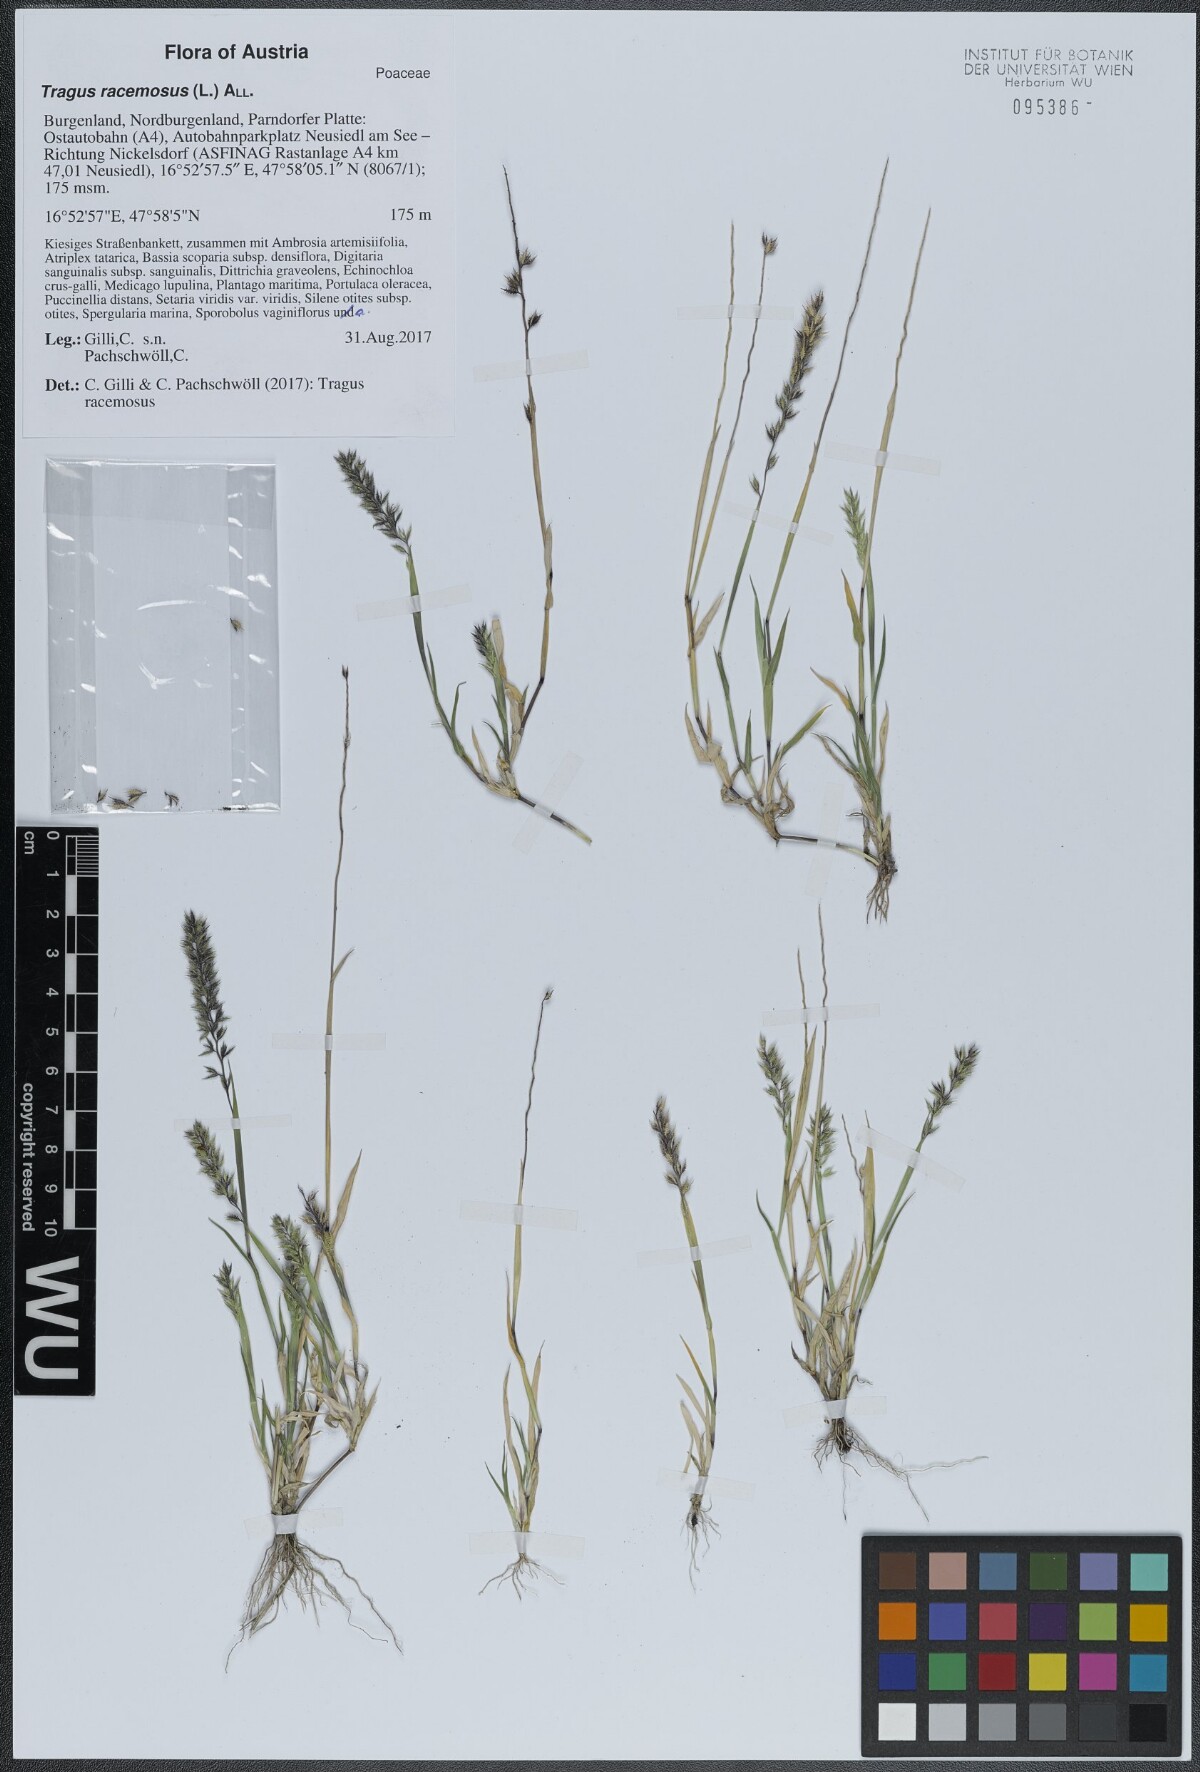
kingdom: Plantae
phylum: Tracheophyta
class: Liliopsida
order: Poales
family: Poaceae
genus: Tragus
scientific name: Tragus racemosus
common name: European bur-grass
